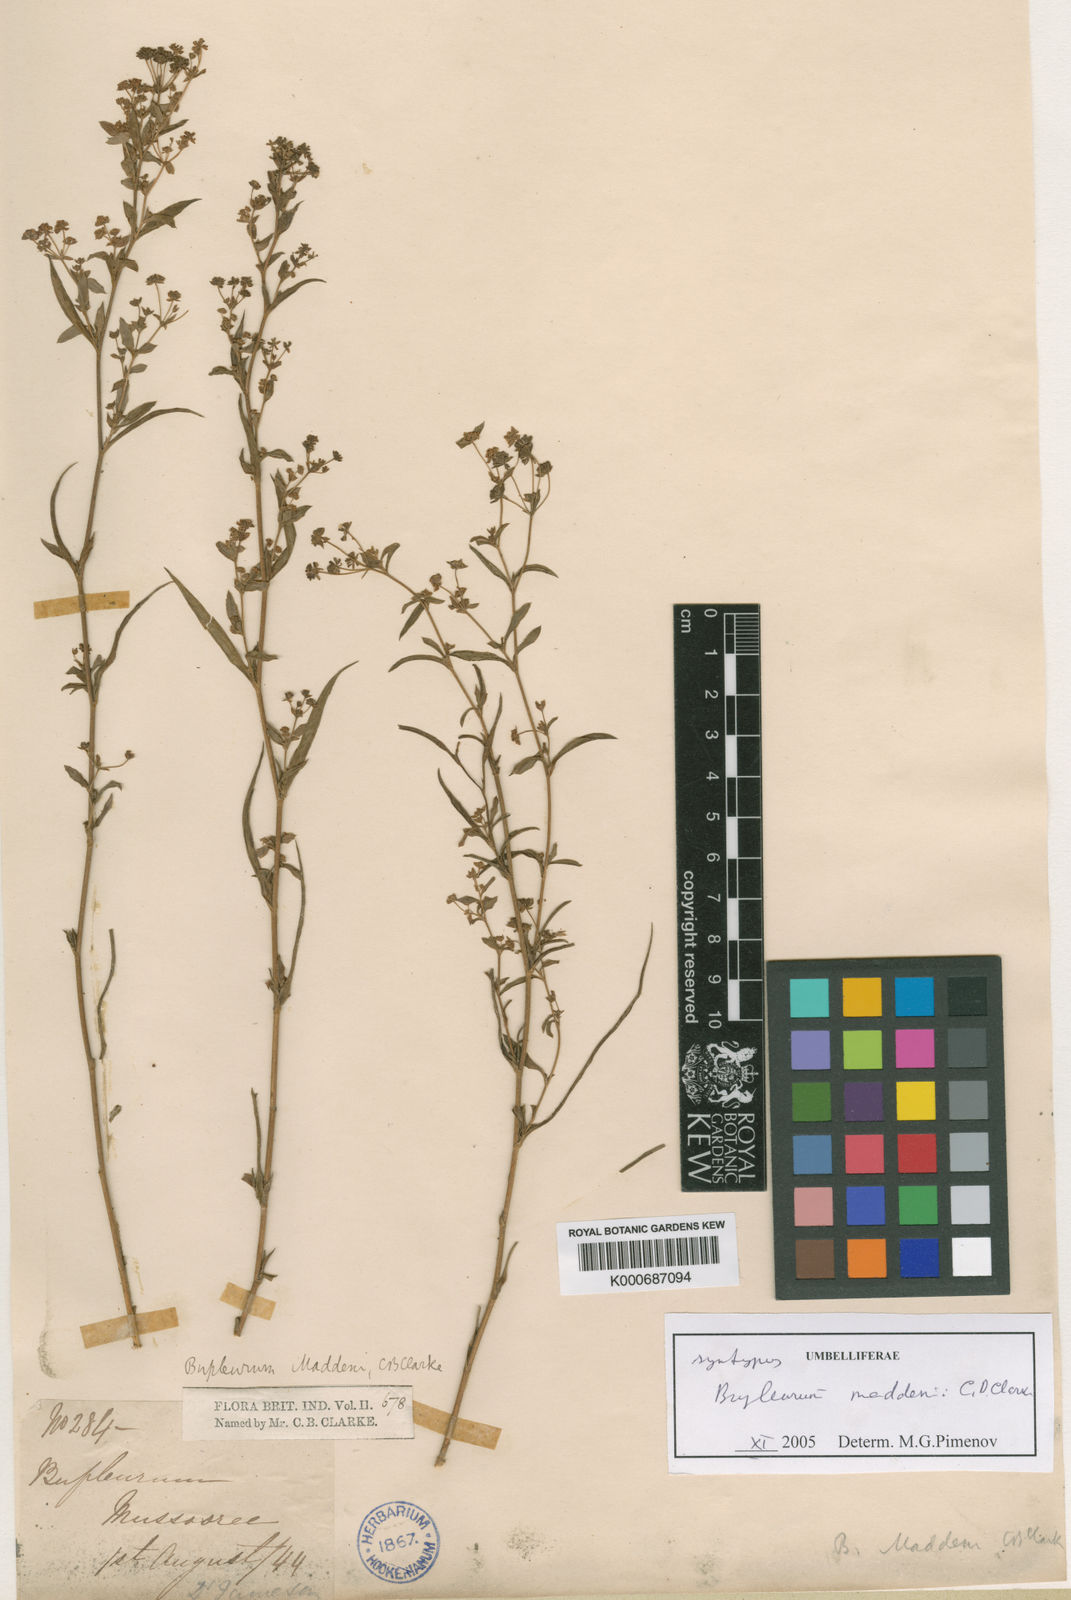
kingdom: Plantae
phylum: Tracheophyta
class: Magnoliopsida
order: Apiales
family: Apiaceae
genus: Bupleurum
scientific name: Bupleurum maddenii
